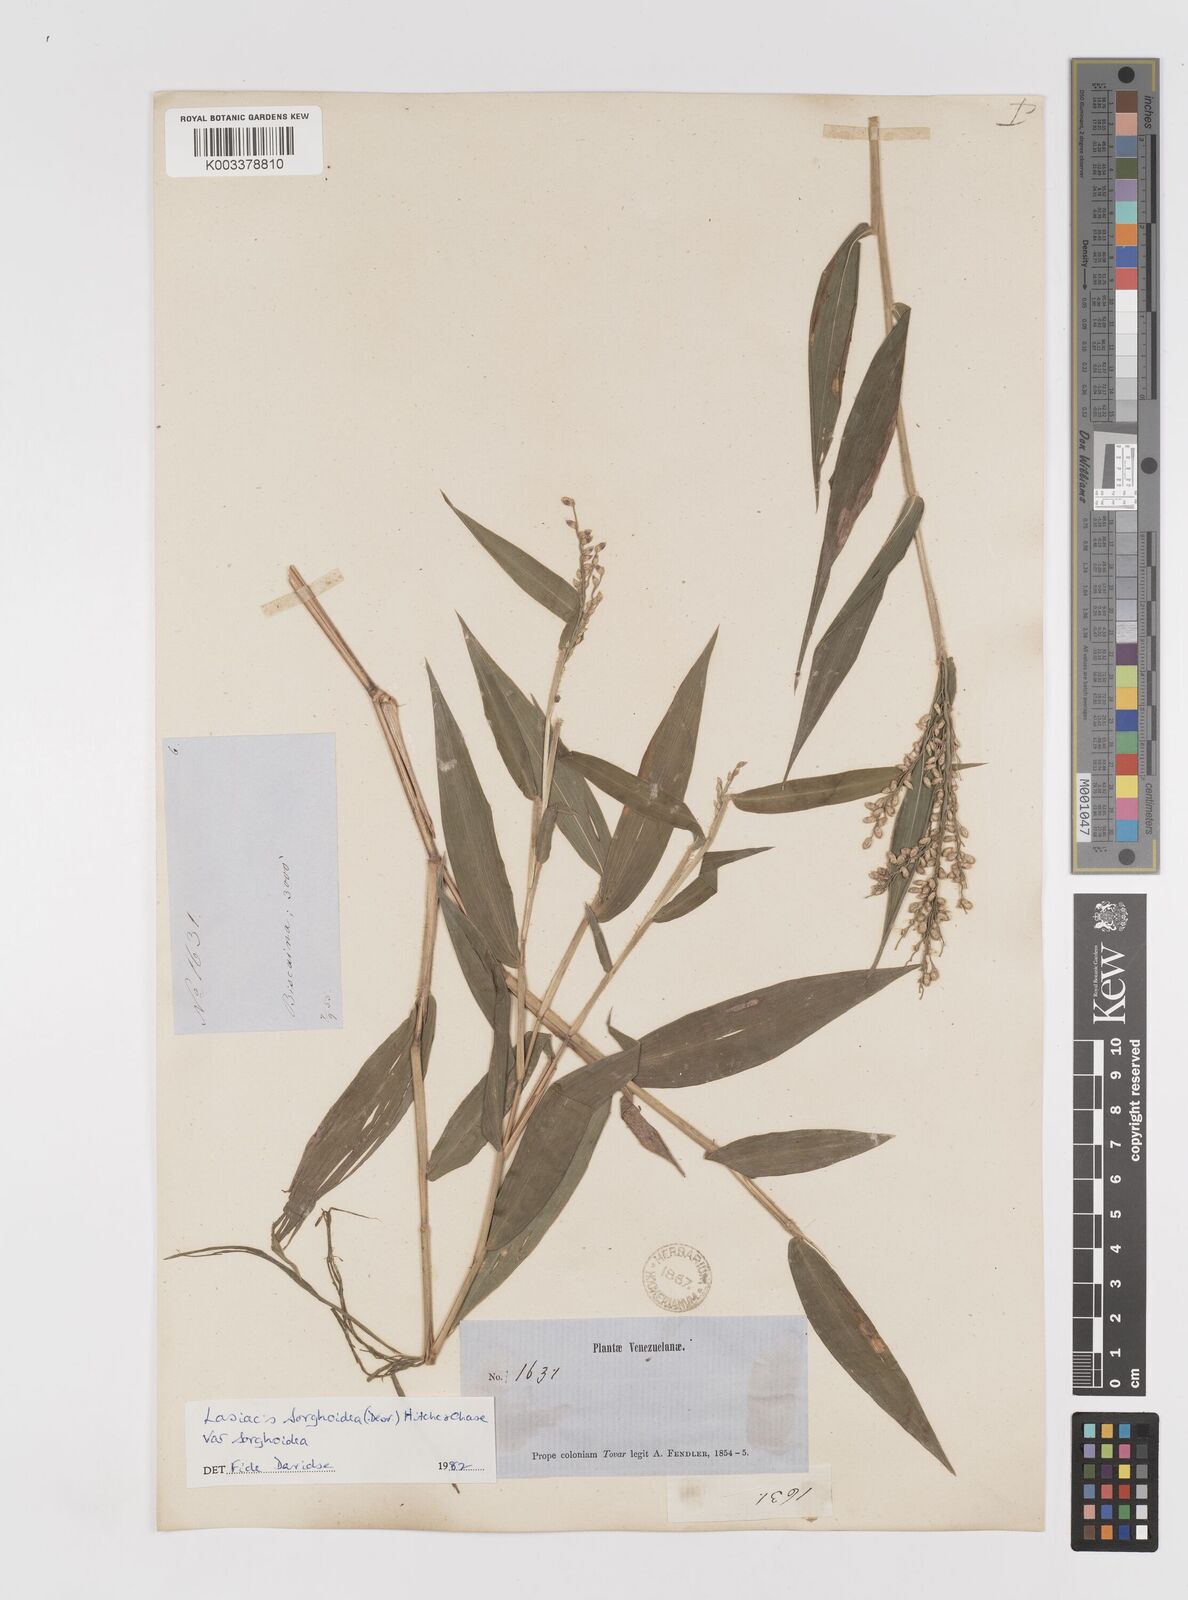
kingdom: Plantae
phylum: Tracheophyta
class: Liliopsida
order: Poales
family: Poaceae
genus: Lasiacis
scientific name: Lasiacis
